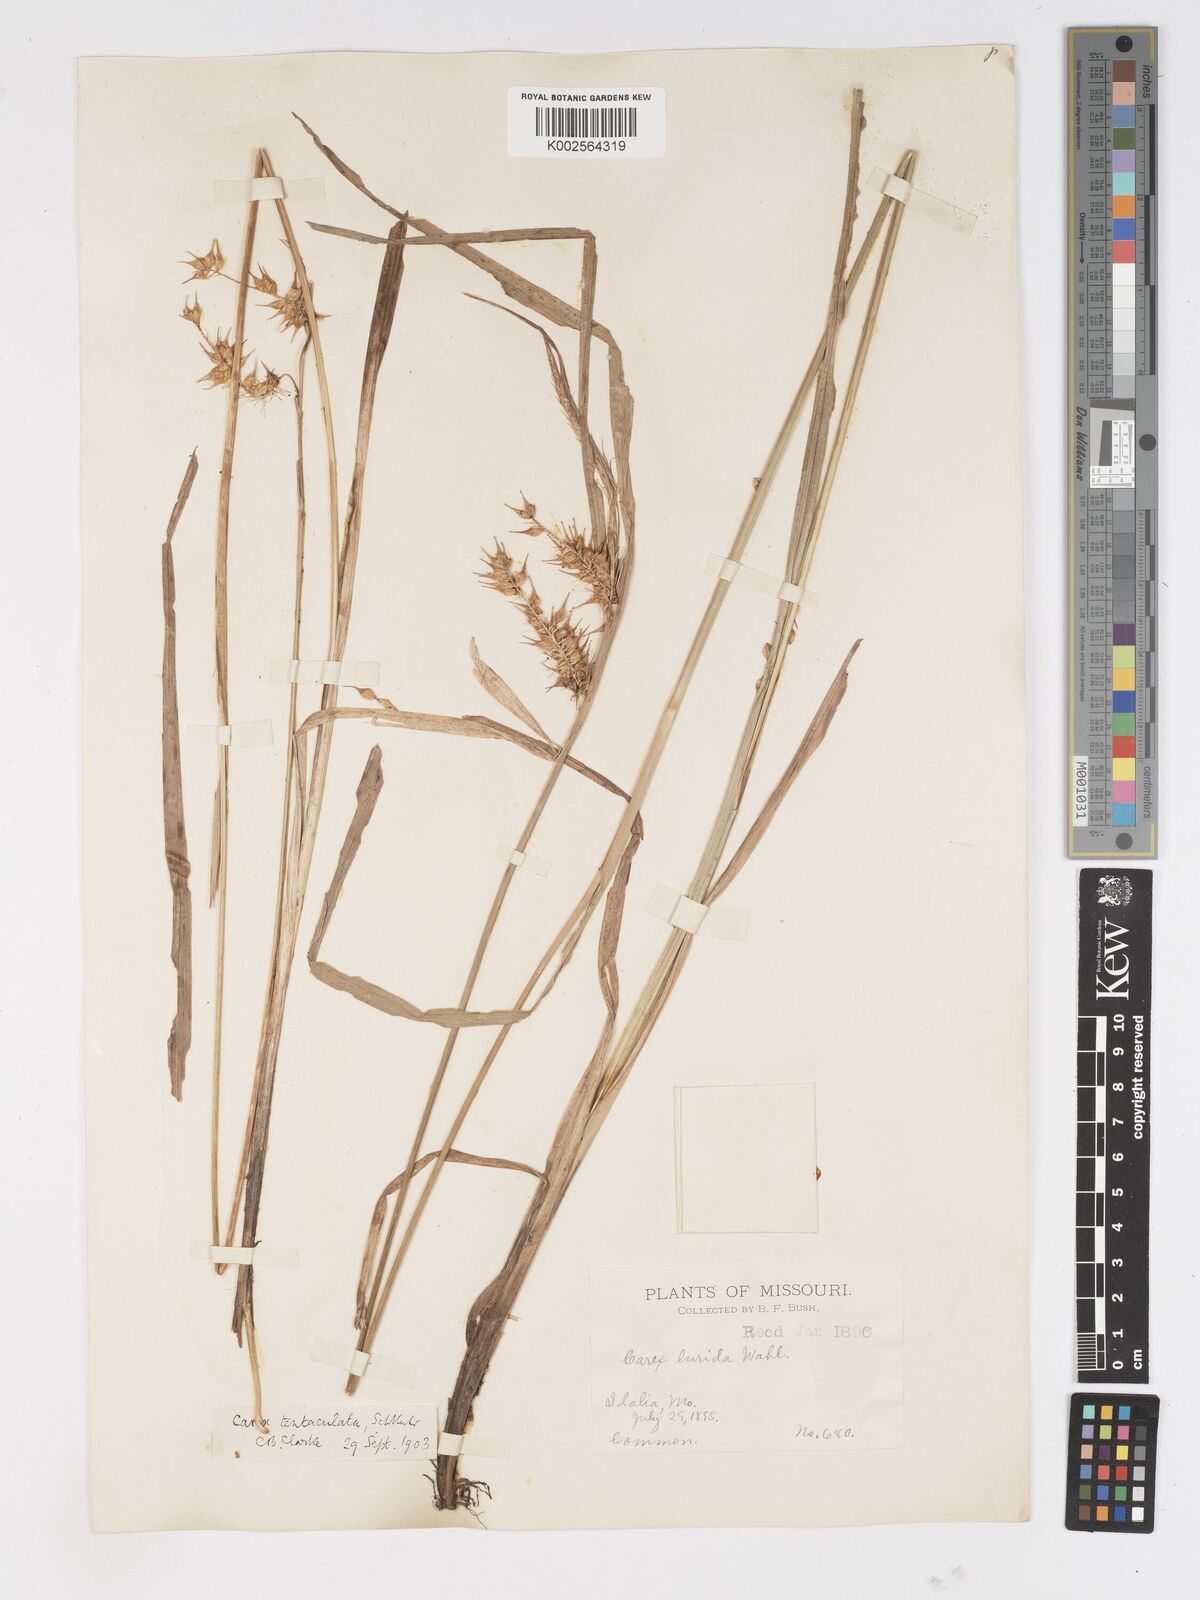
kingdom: Plantae
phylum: Tracheophyta
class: Liliopsida
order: Poales
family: Cyperaceae
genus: Carex
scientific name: Carex lurida
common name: Sallow sedge
